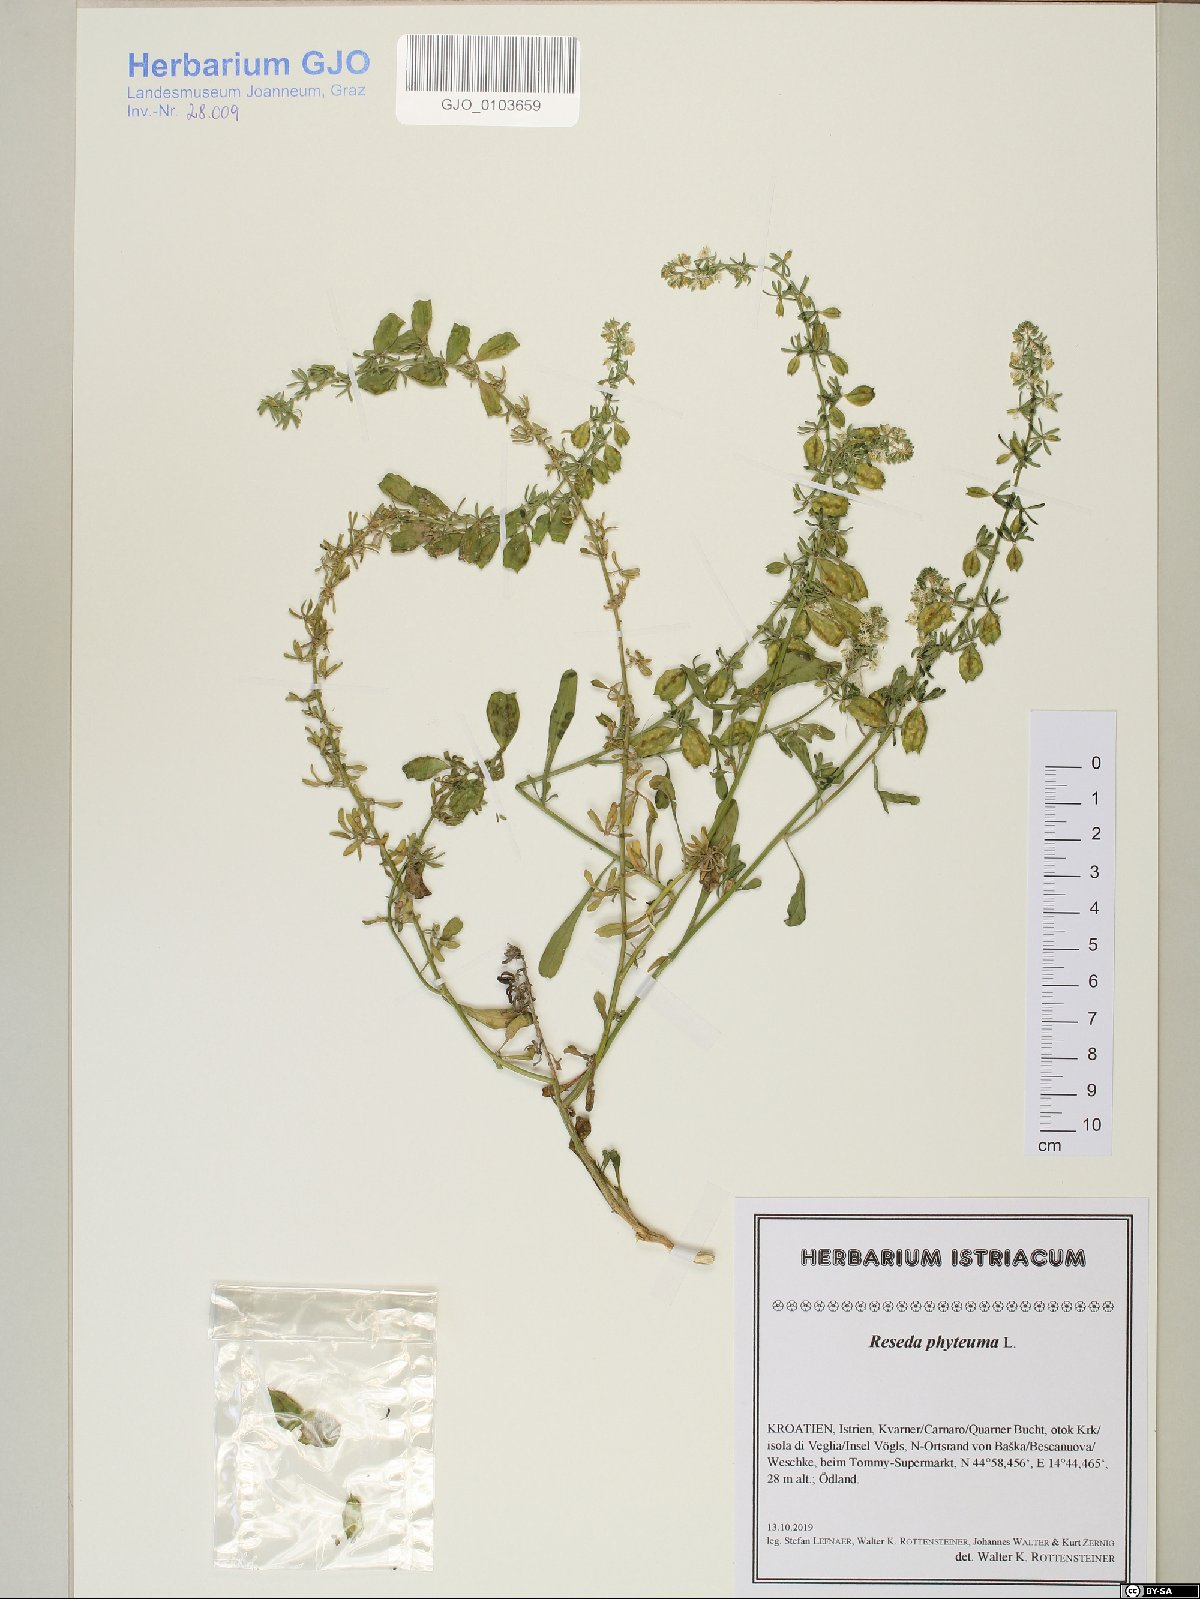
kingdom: Plantae
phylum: Tracheophyta
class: Magnoliopsida
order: Brassicales
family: Resedaceae
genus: Reseda
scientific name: Reseda phyteuma
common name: Corn mignonette
